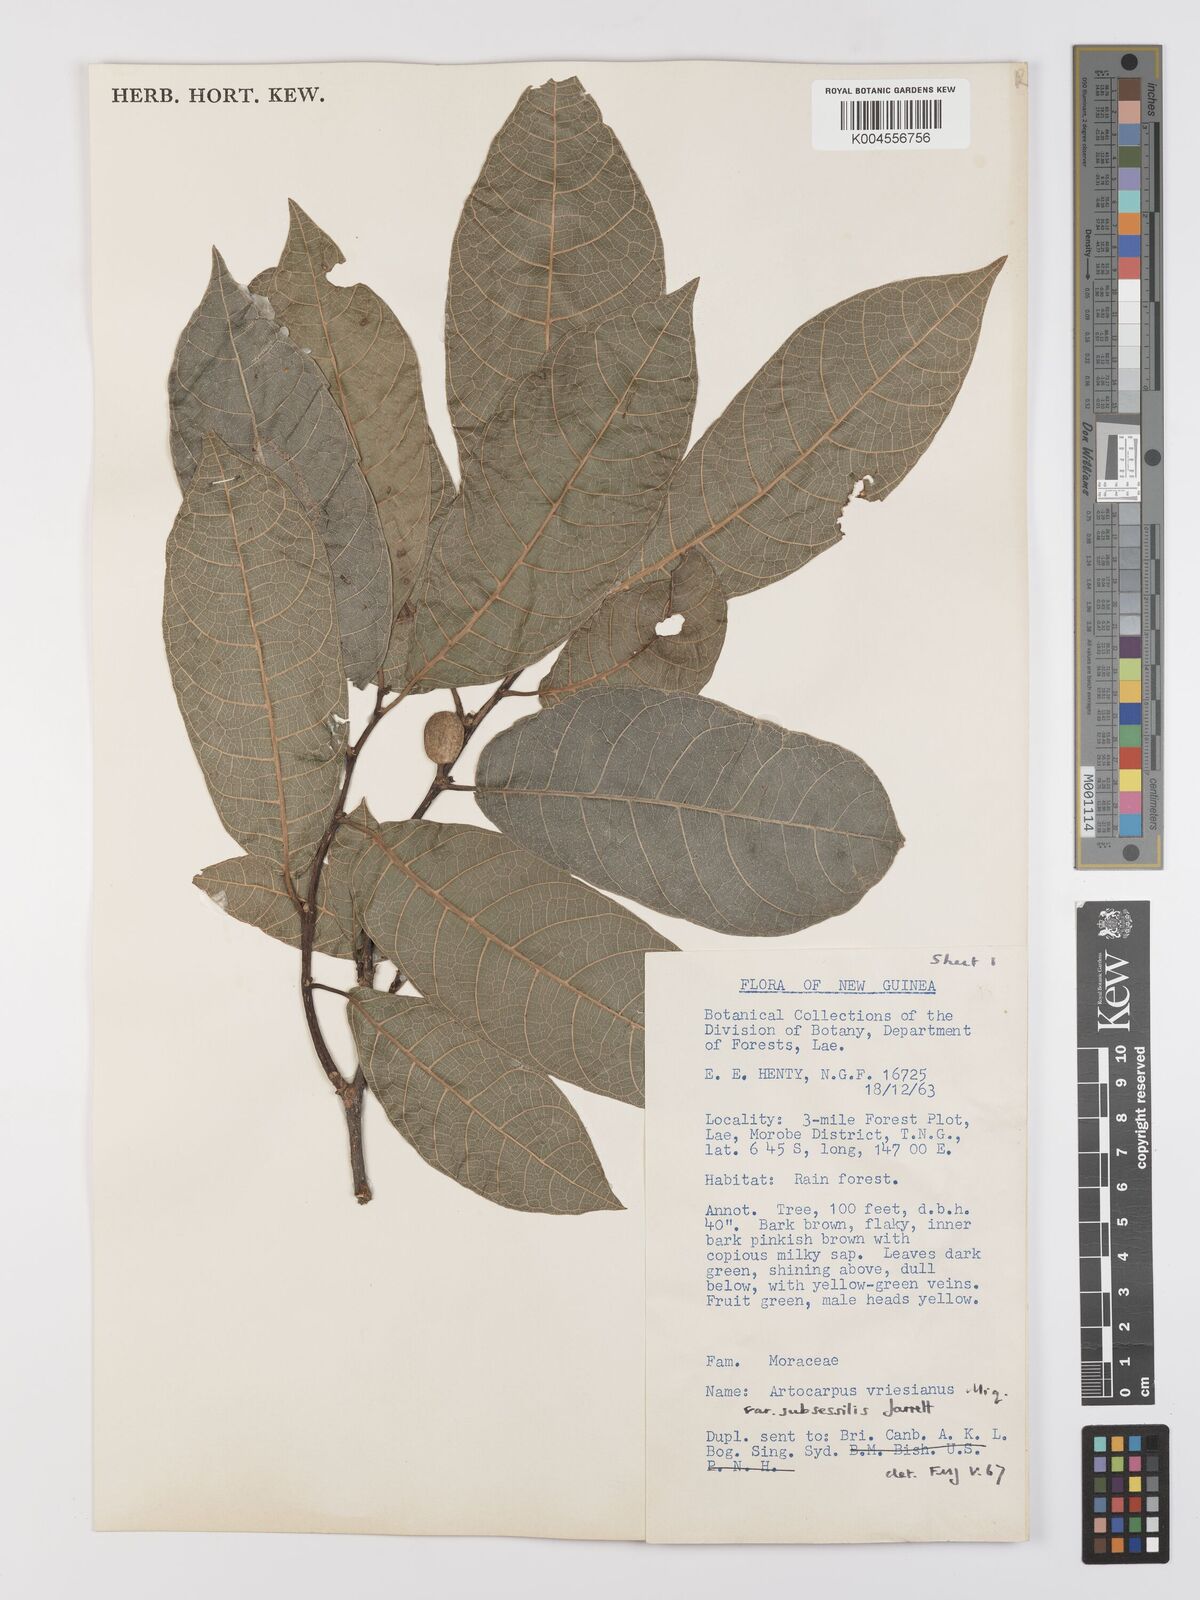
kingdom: Plantae
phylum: Tracheophyta
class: Magnoliopsida
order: Rosales
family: Moraceae
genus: Artocarpus
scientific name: Artocarpus vrieseanus
